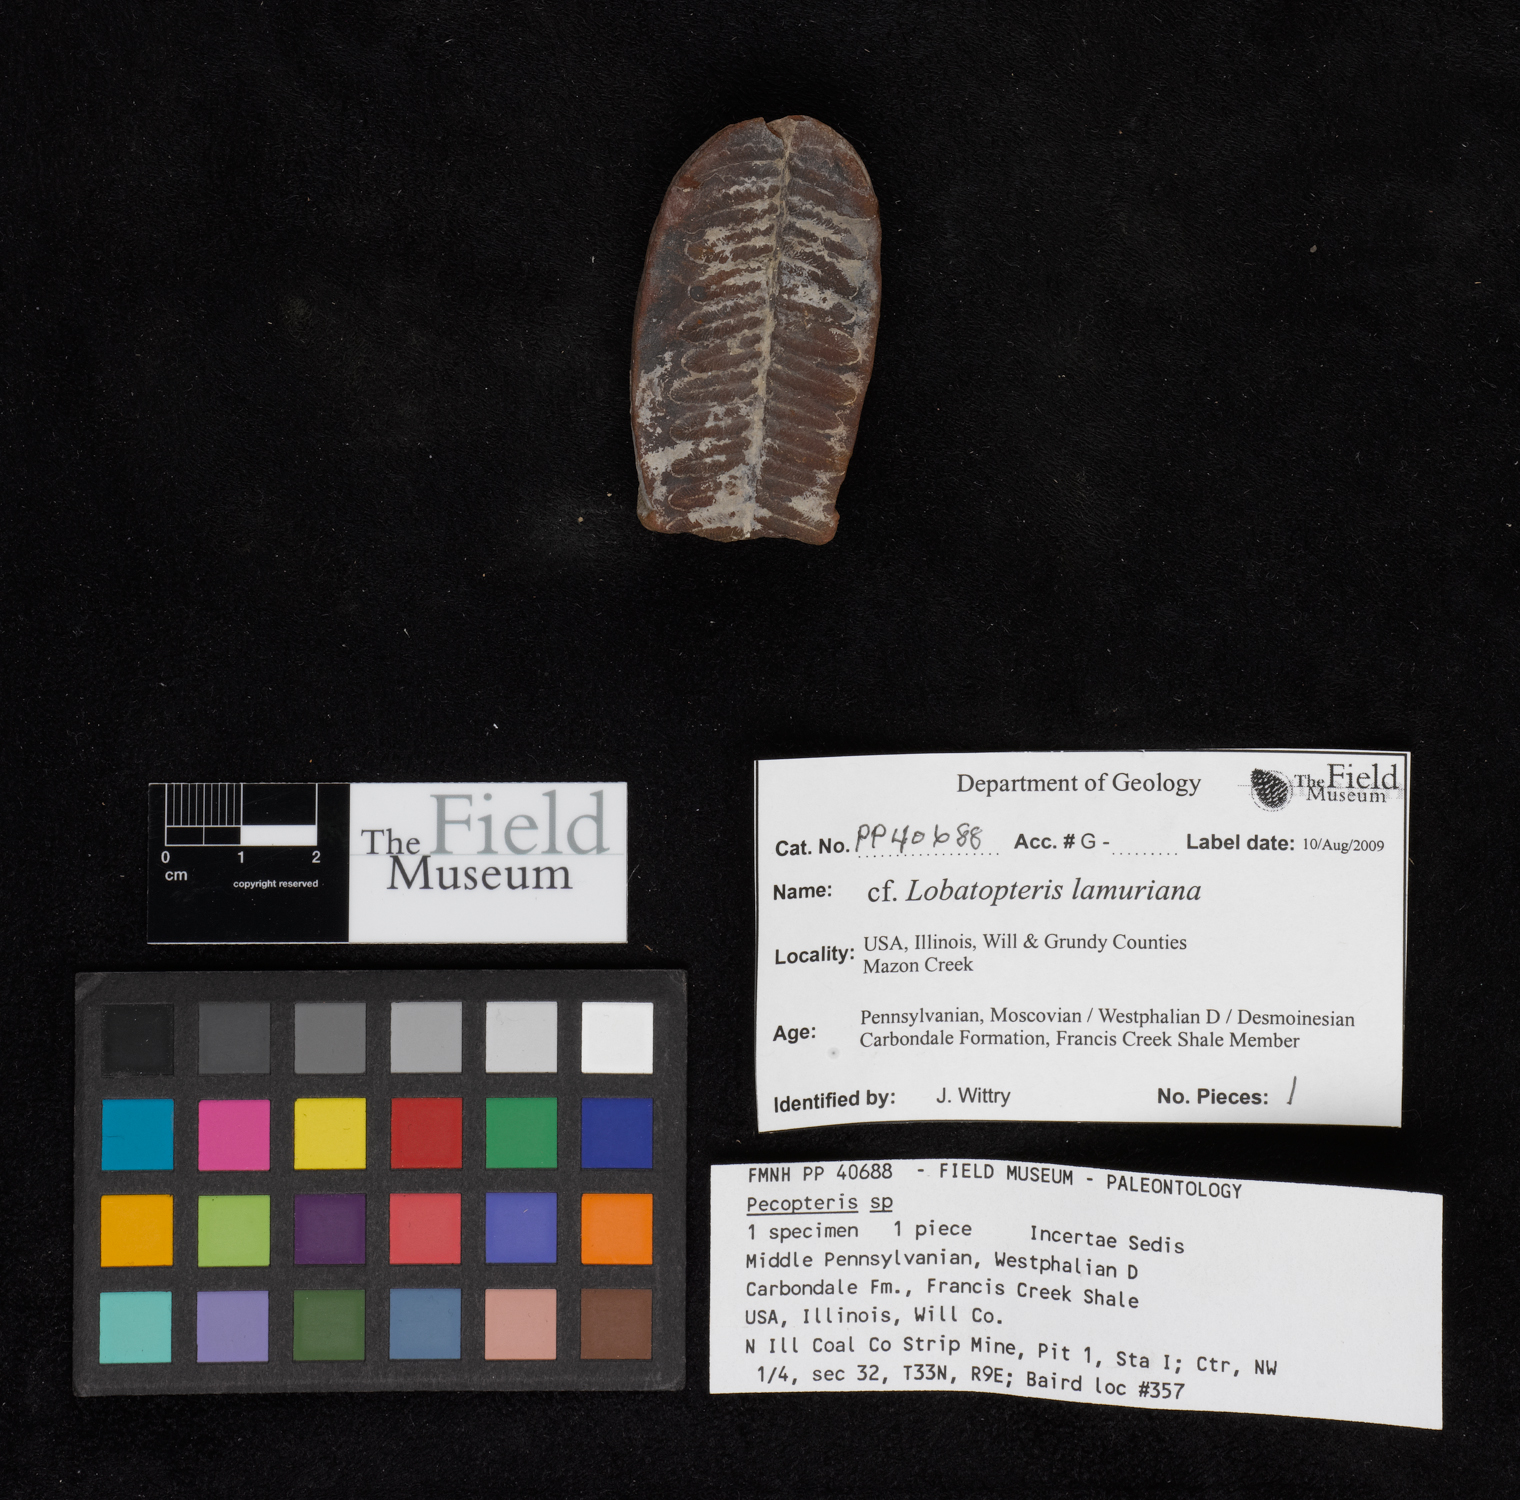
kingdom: Plantae
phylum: Tracheophyta
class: Polypodiopsida
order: Marattiales
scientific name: Marattiales
